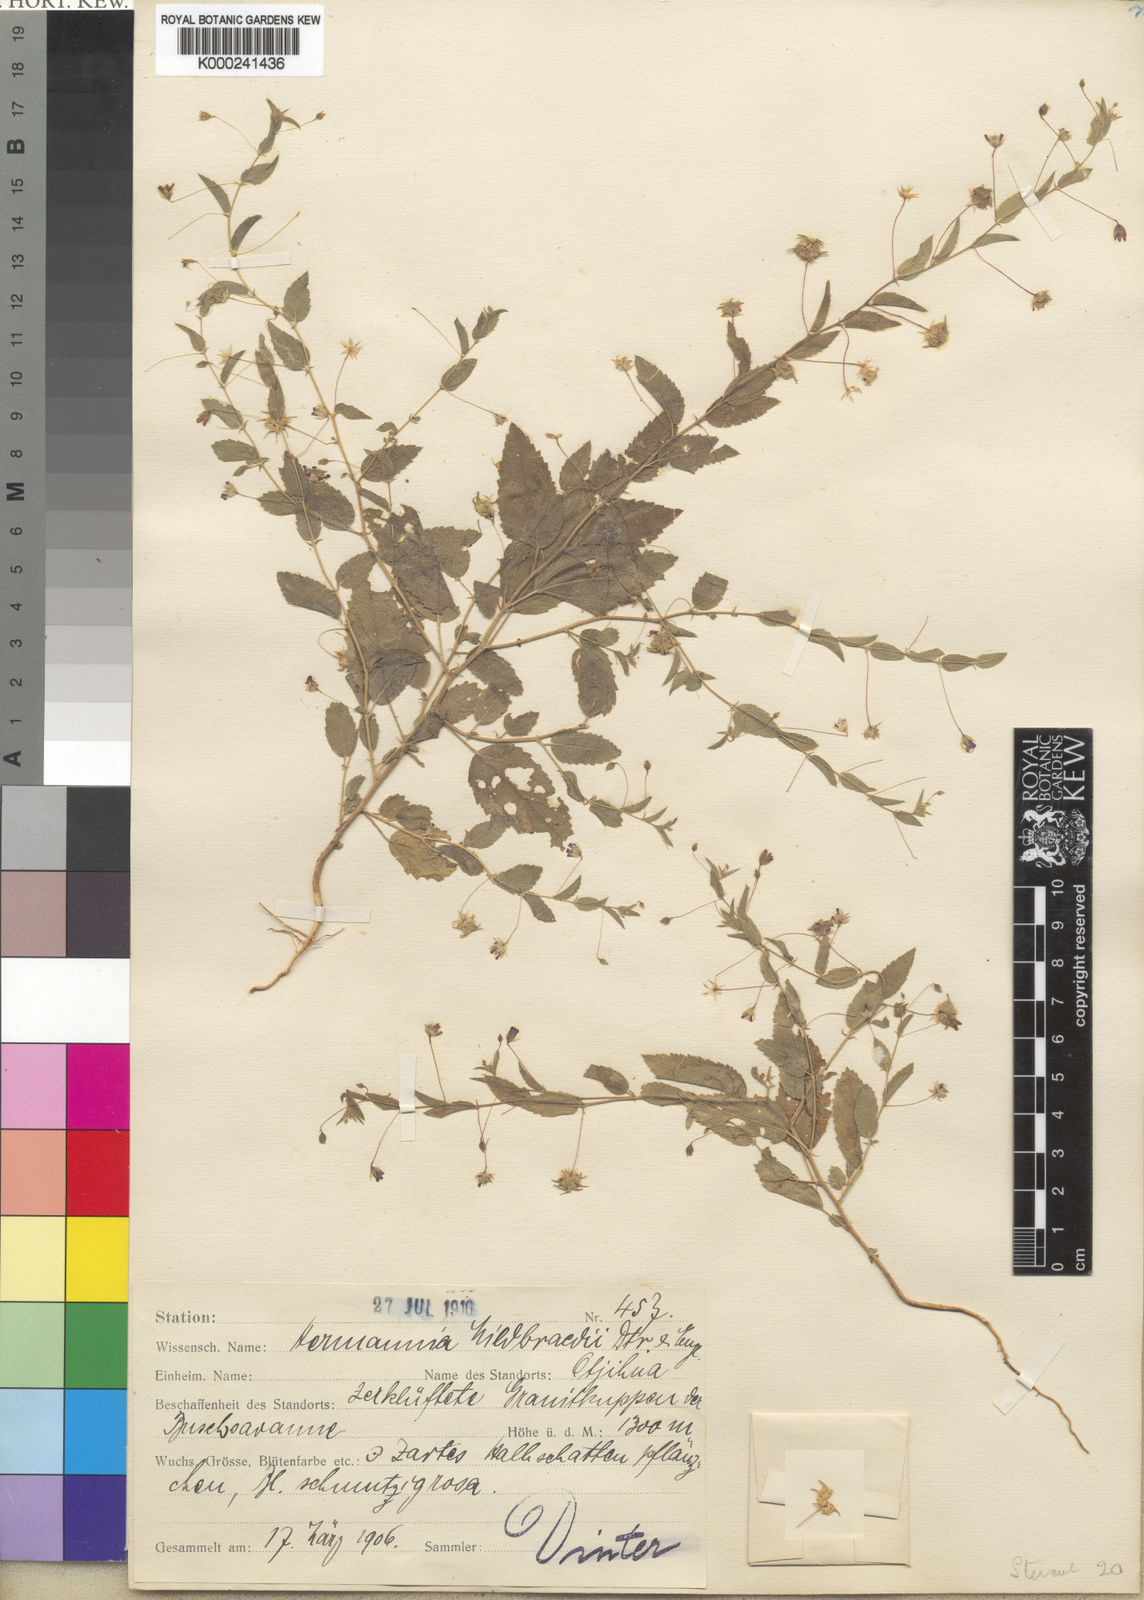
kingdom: Plantae
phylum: Tracheophyta
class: Magnoliopsida
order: Malvales
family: Malvaceae
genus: Hermannia
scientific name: Hermannia tigreensis
